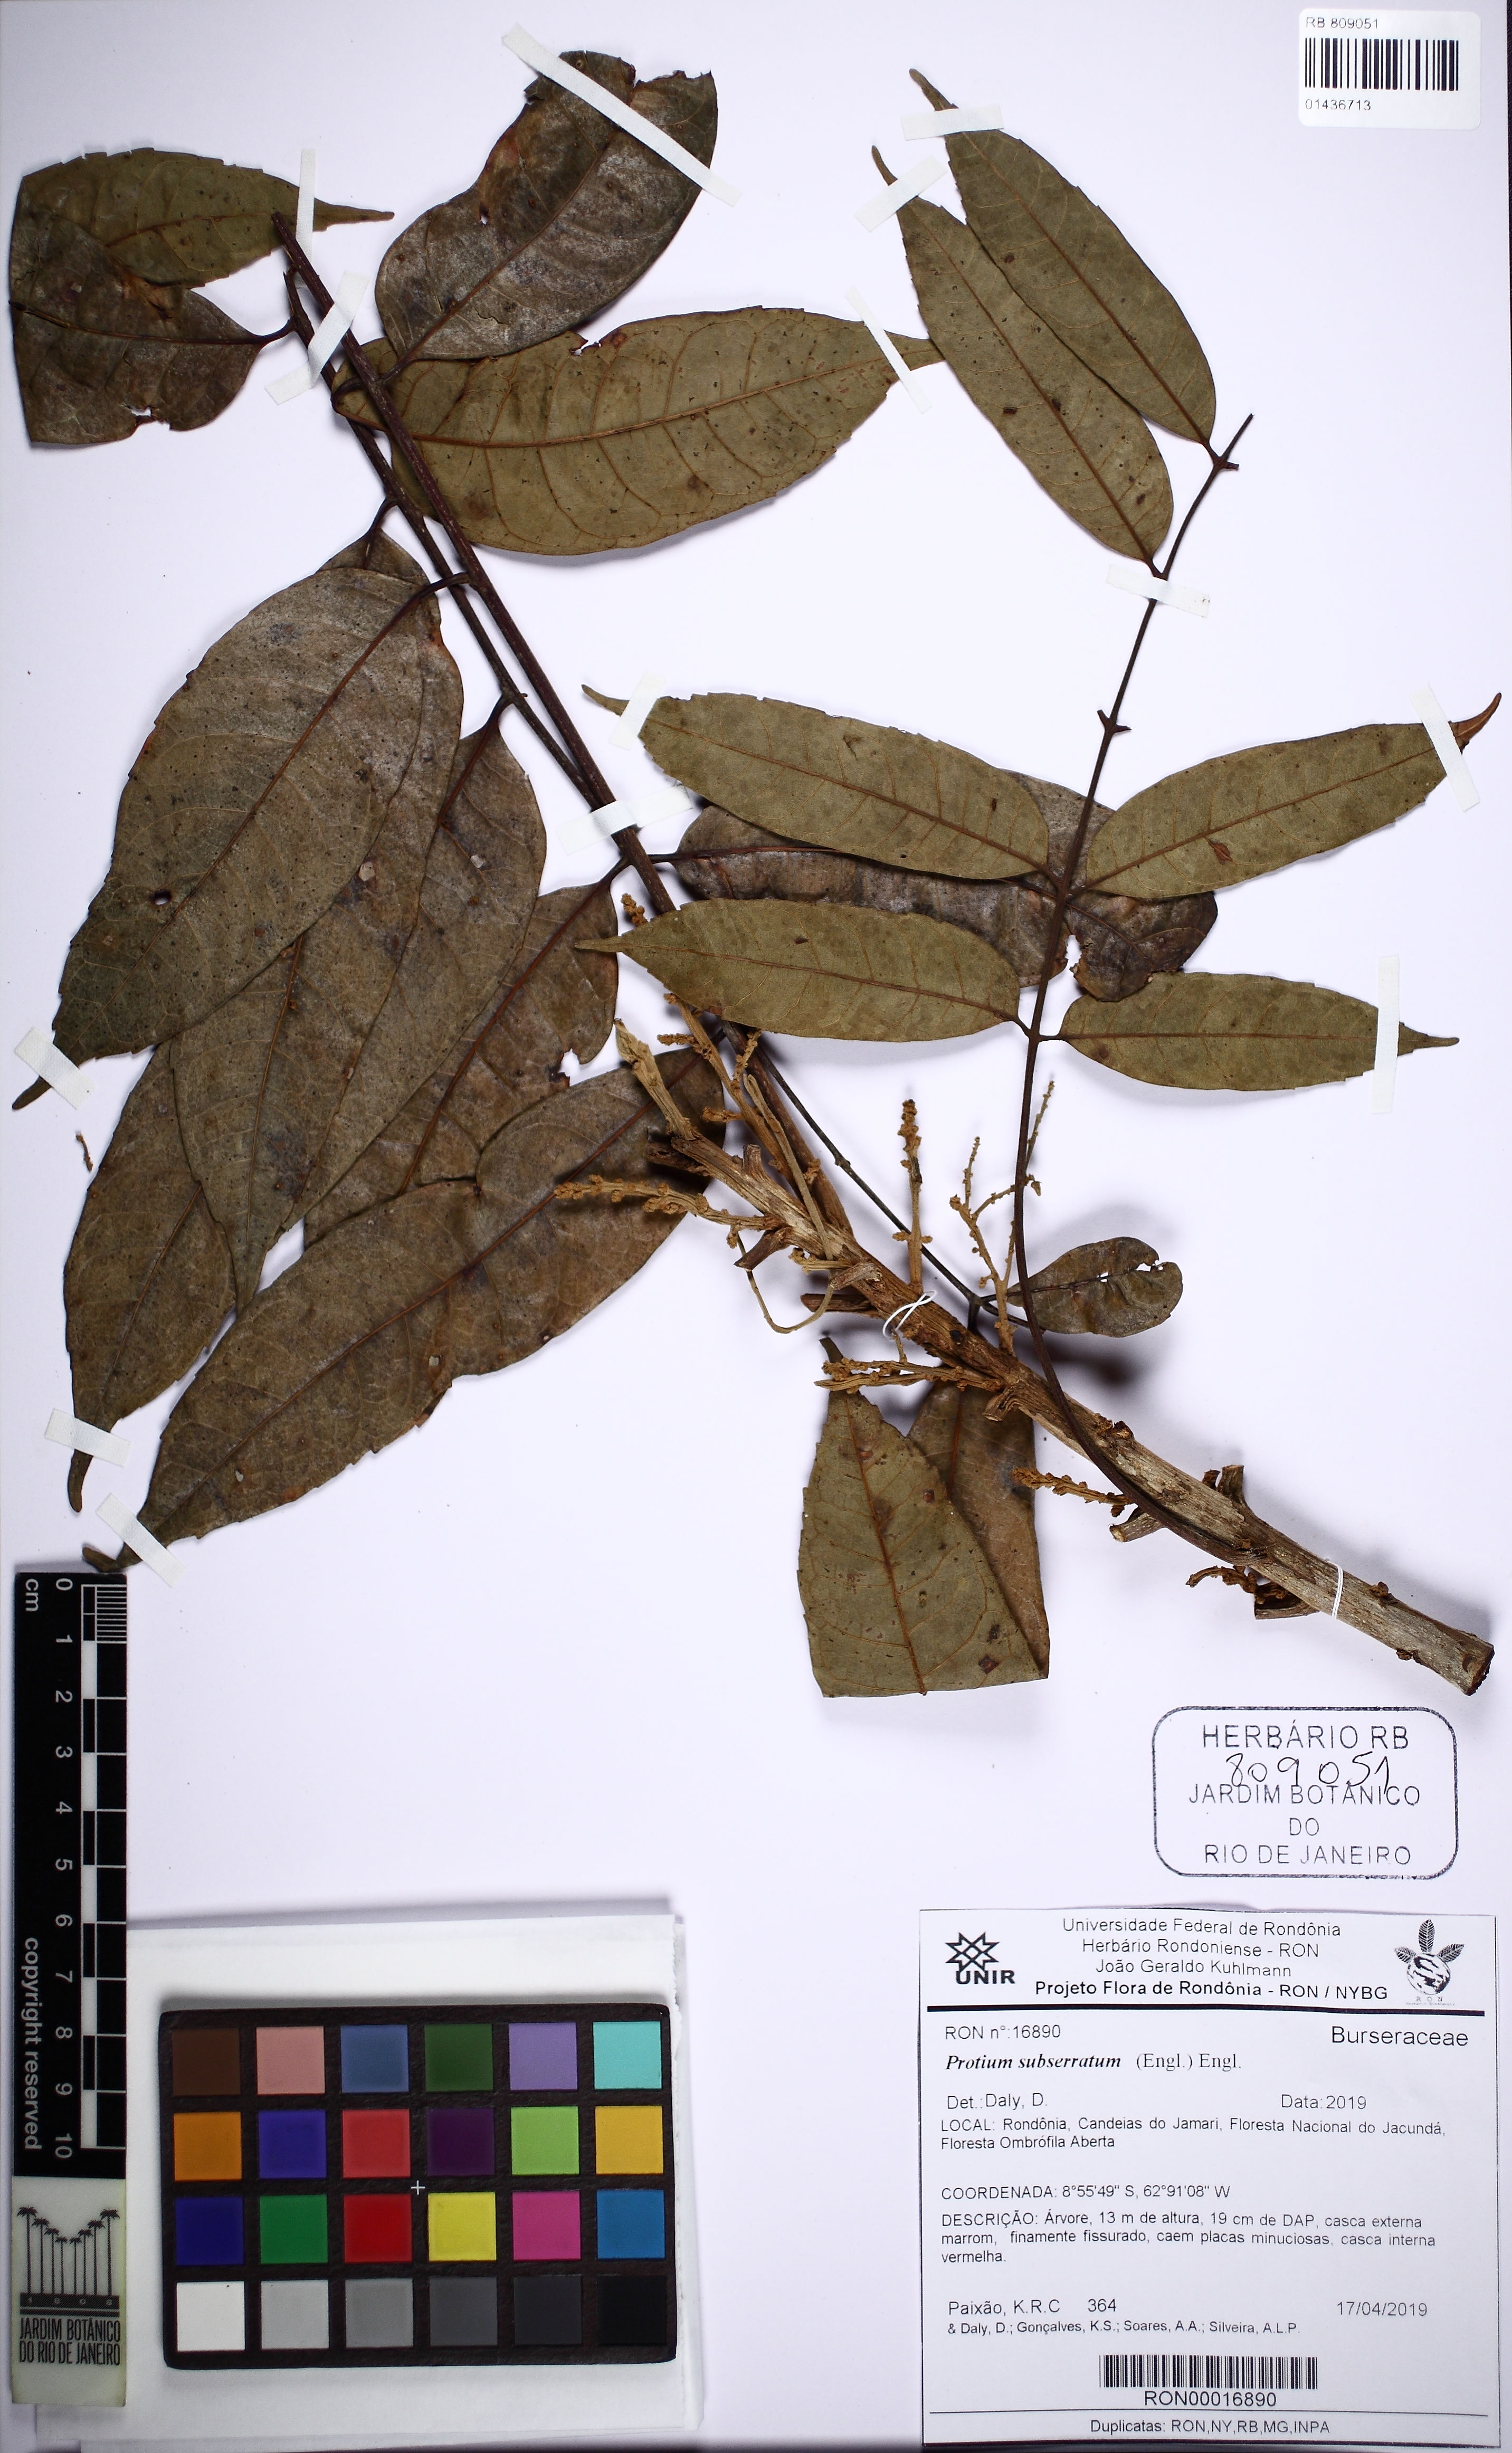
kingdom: Plantae
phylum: Tracheophyta
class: Magnoliopsida
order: Sapindales
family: Burseraceae
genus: Protium
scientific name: Protium subserratum
